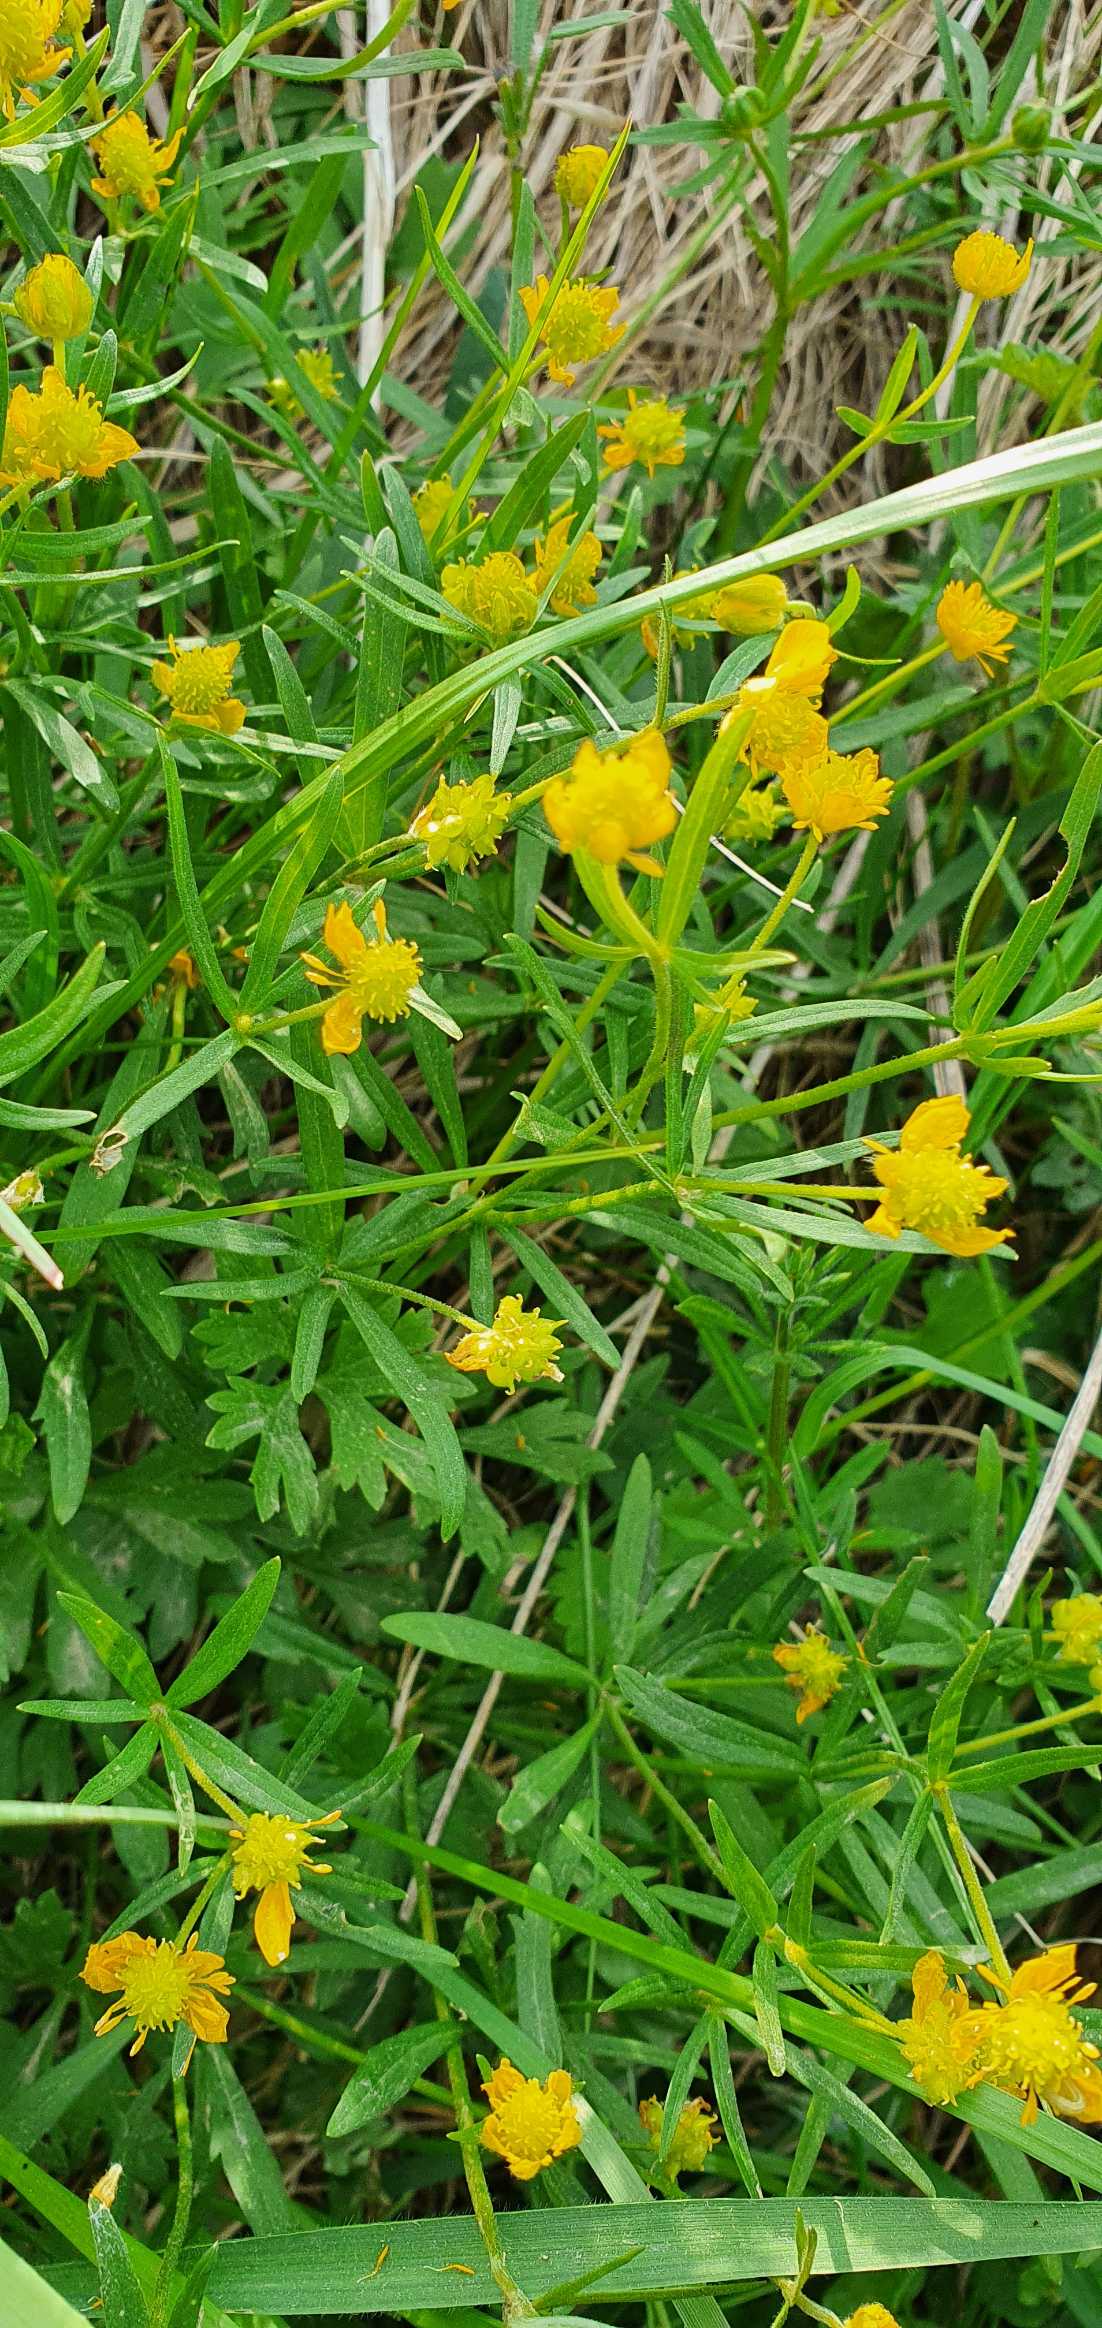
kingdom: Plantae
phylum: Tracheophyta
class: Magnoliopsida
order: Ranunculales
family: Ranunculaceae
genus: Ranunculus
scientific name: Ranunculus auricomus
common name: Nyrebladet ranunkel
